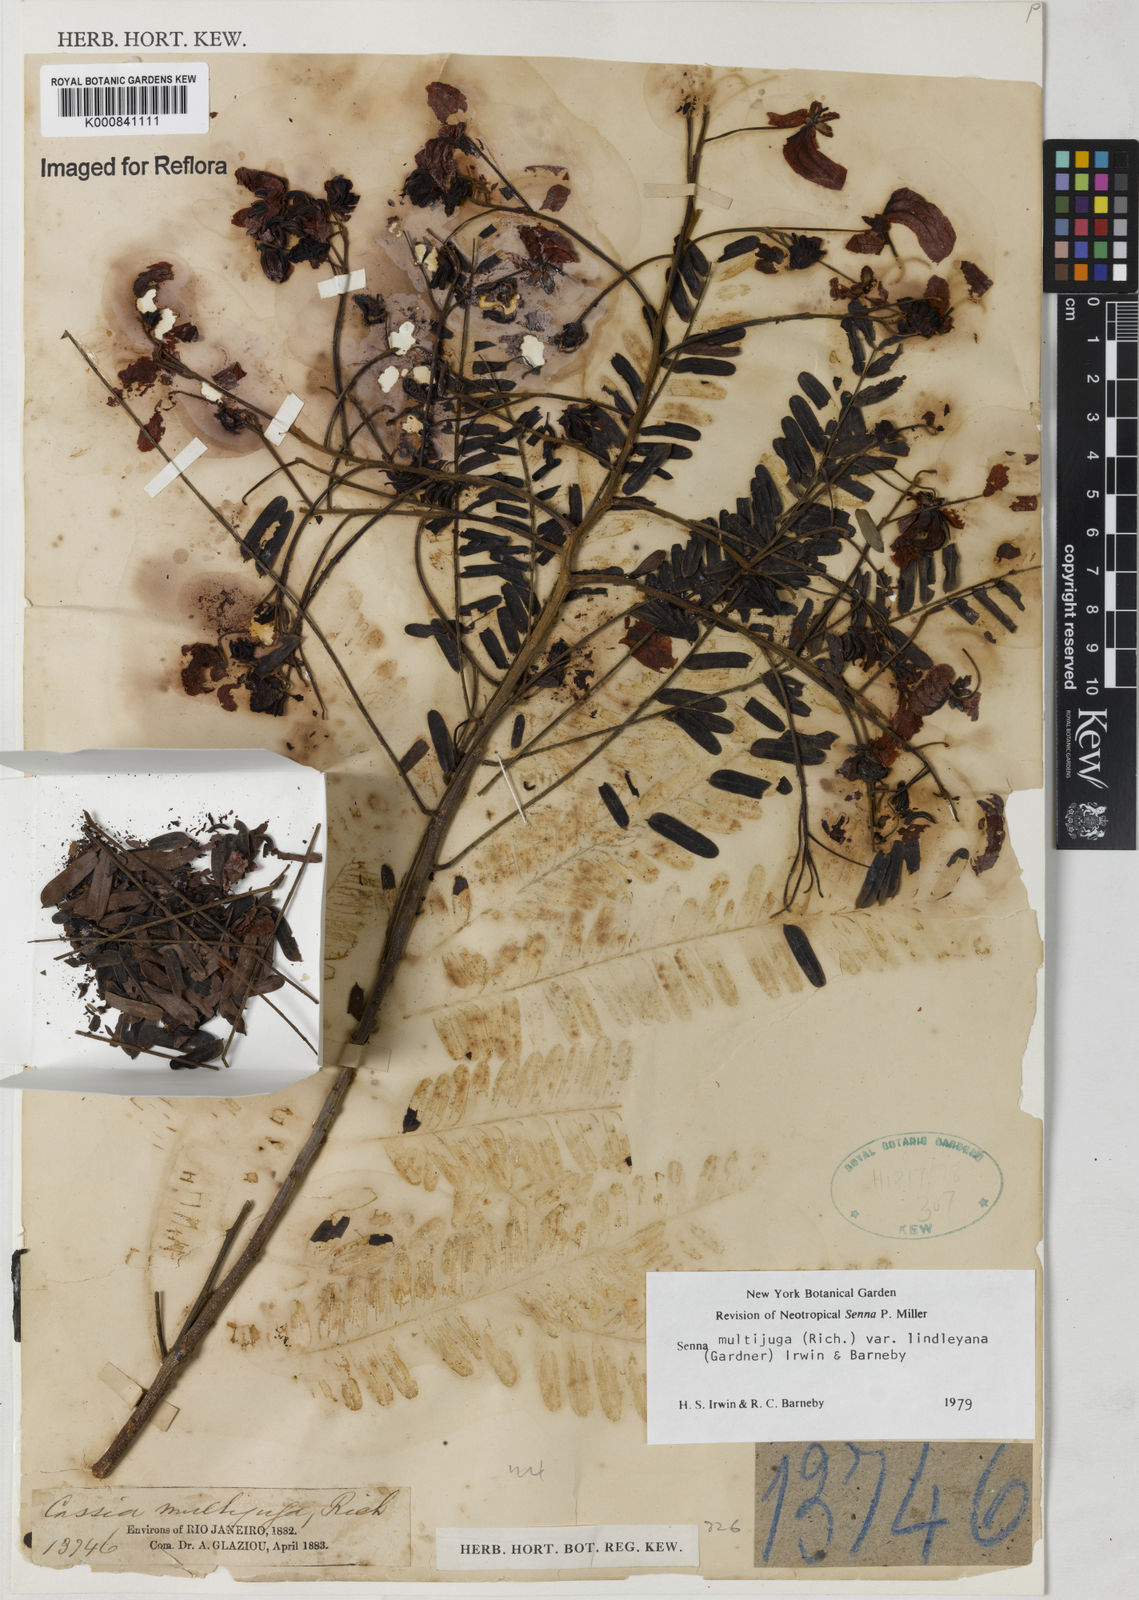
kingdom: Plantae
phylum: Tracheophyta
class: Magnoliopsida
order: Fabales
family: Fabaceae
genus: Senna
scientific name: Senna multijuga
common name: False sicklepod
